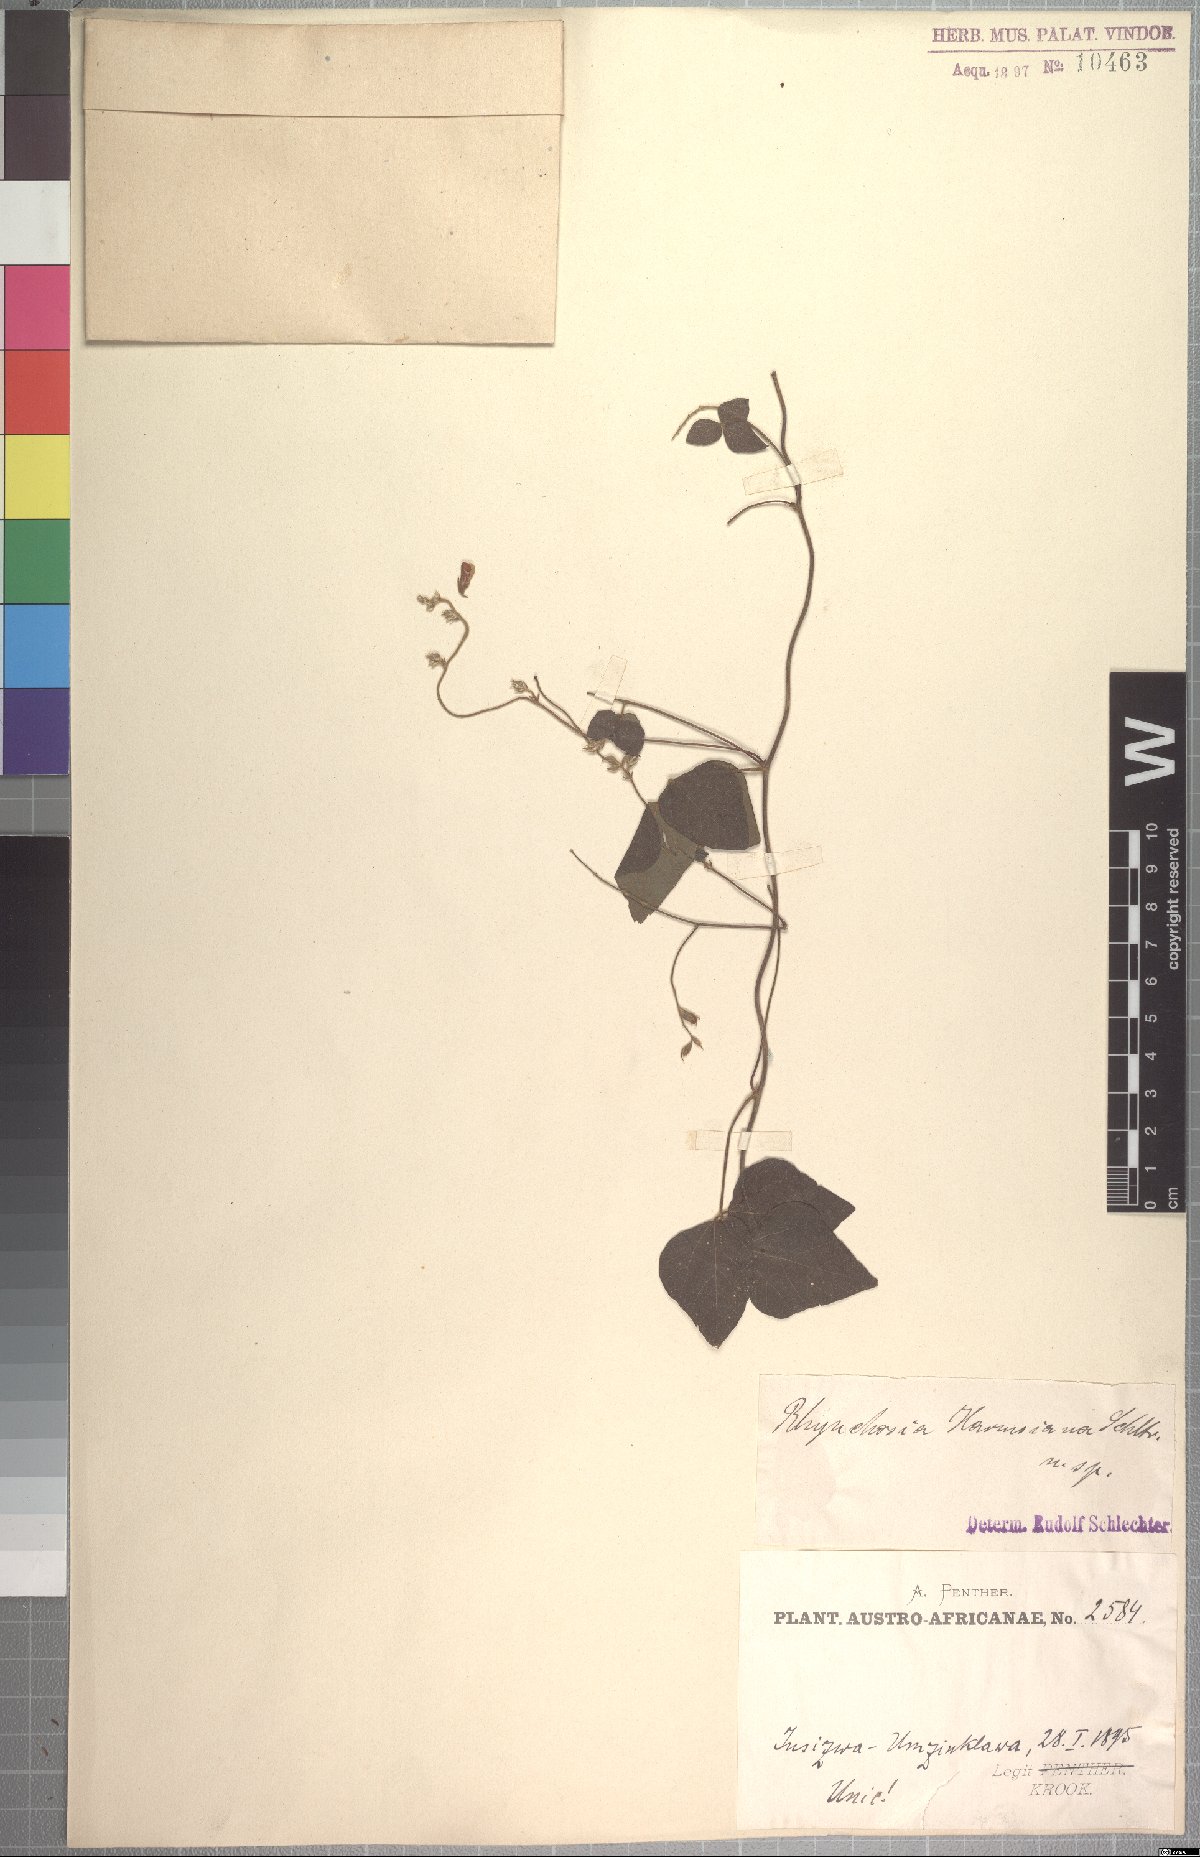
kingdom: Plantae
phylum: Tracheophyta
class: Magnoliopsida
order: Fabales
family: Fabaceae
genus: Rhynchosia
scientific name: Rhynchosia harmsiana
